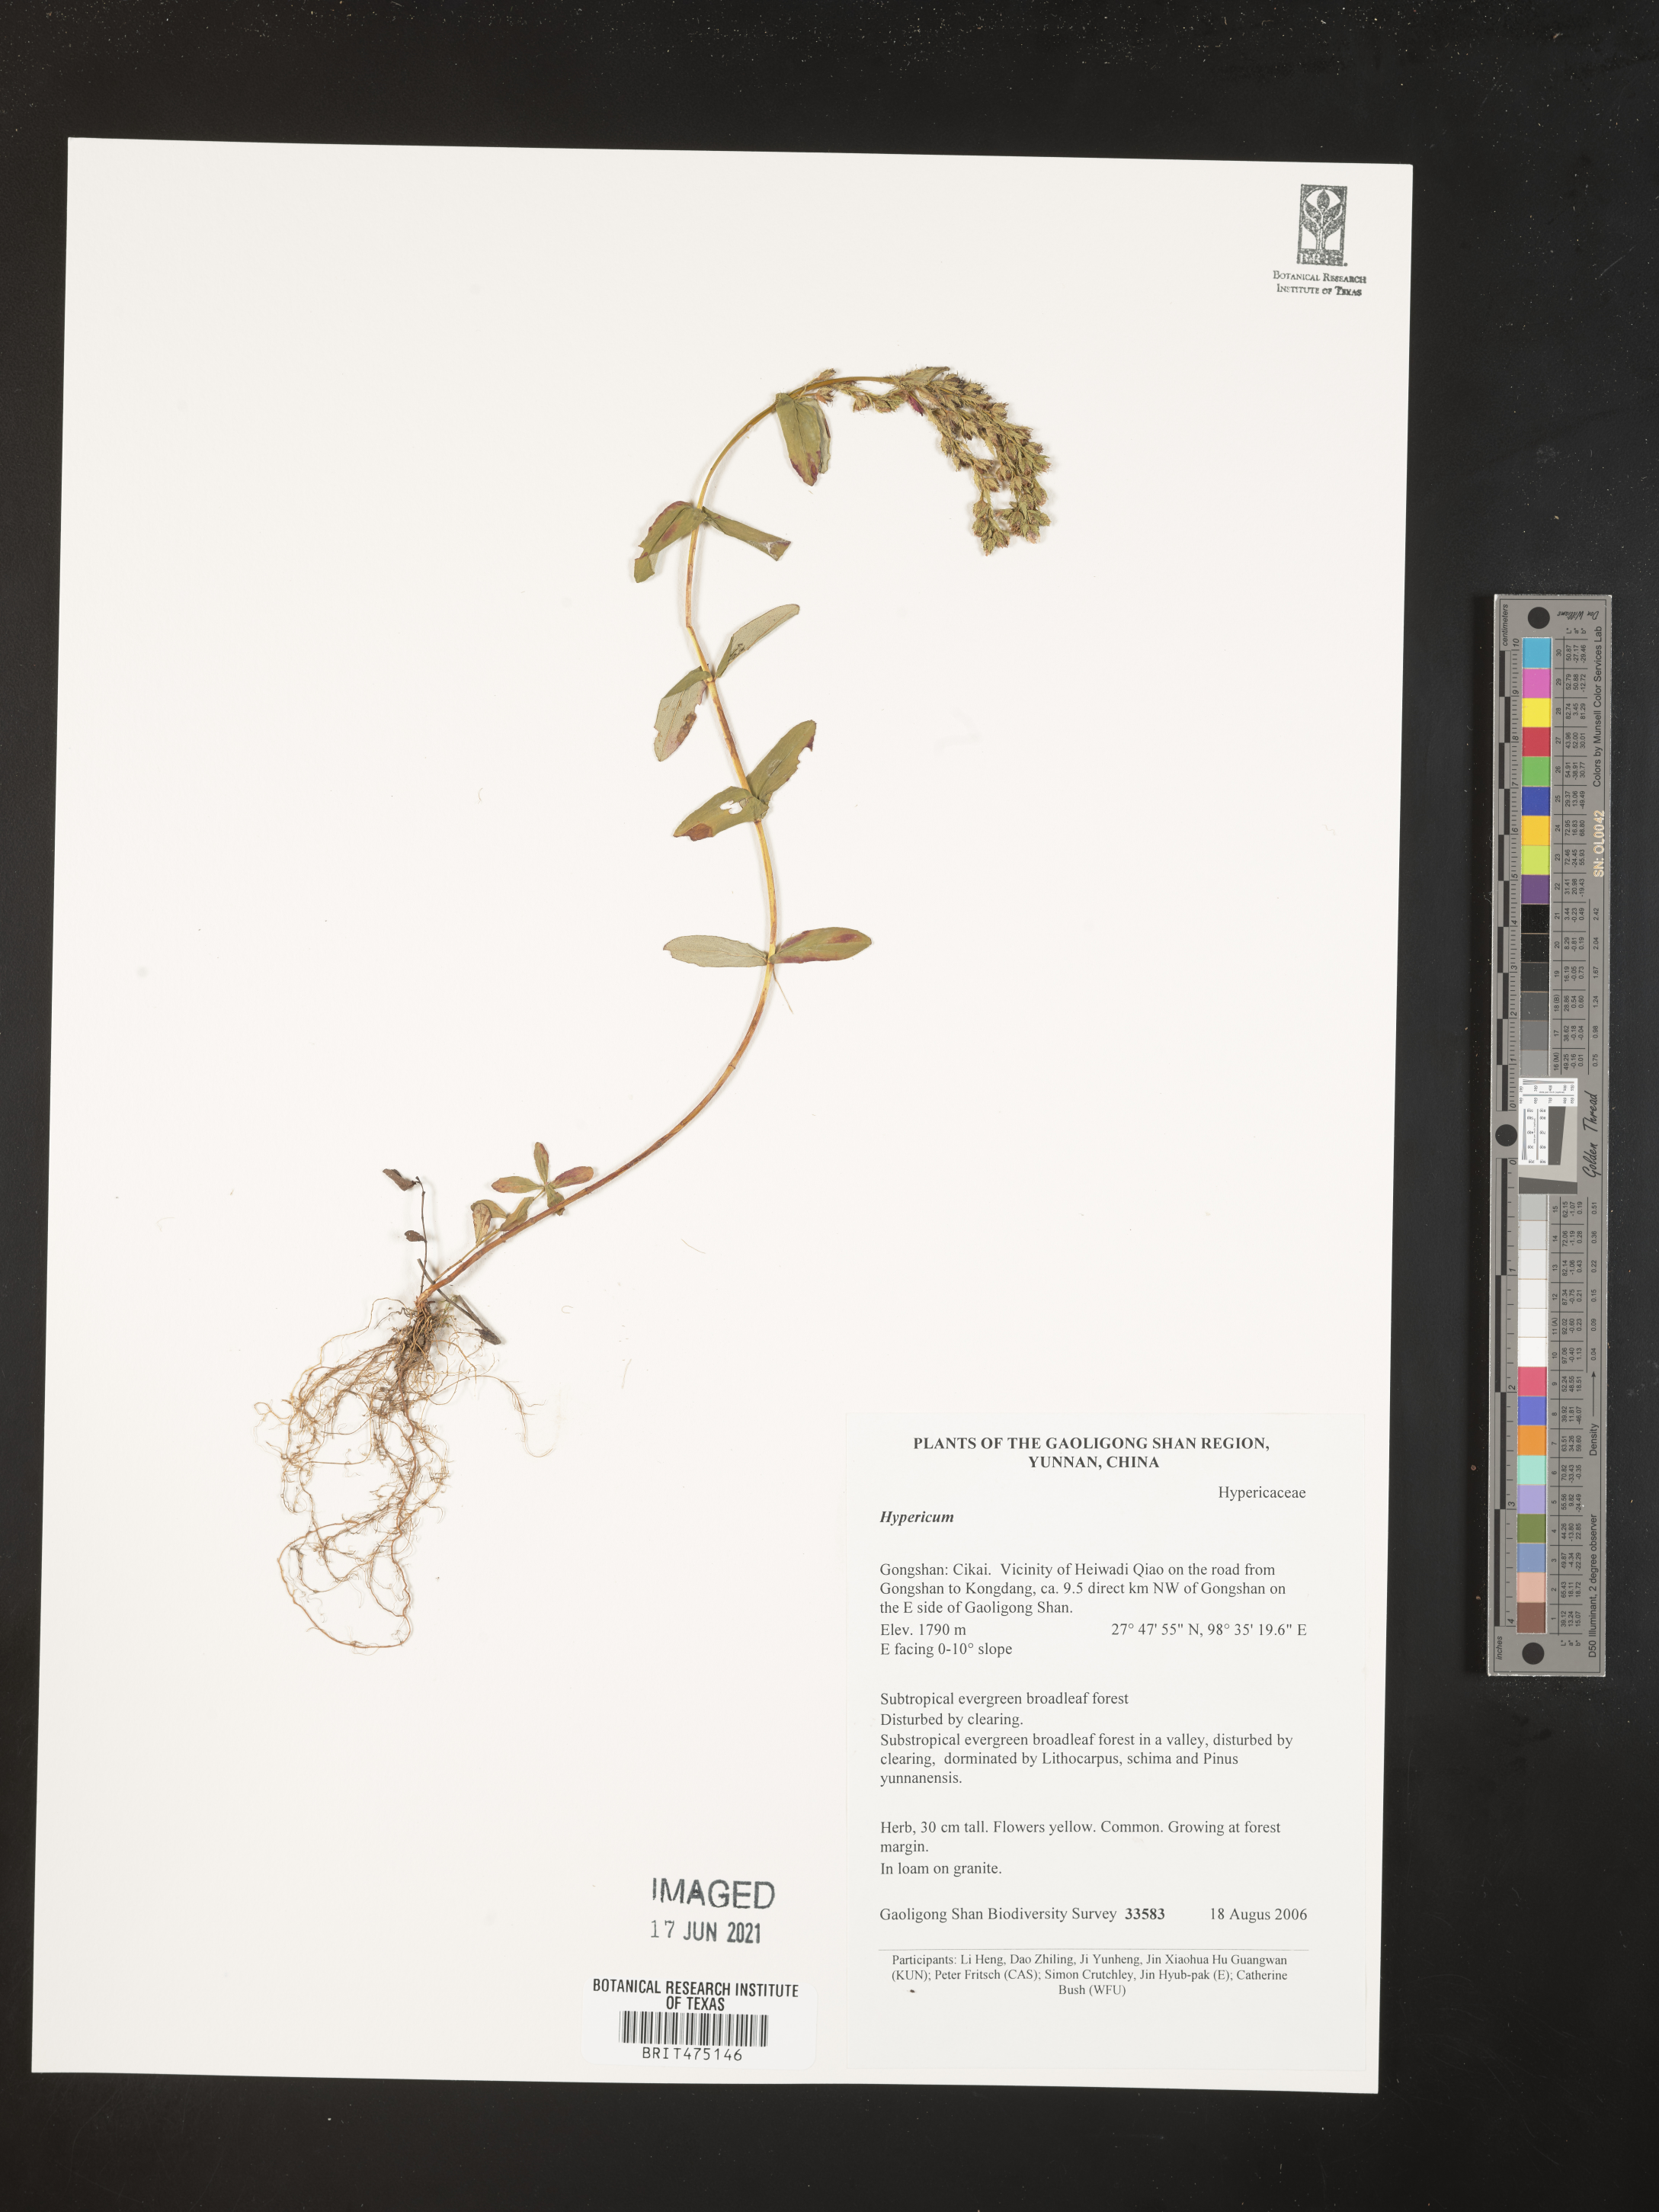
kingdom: Plantae
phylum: Tracheophyta
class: Magnoliopsida
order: Malpighiales
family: Hypericaceae
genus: Hypericum
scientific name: Hypericum
